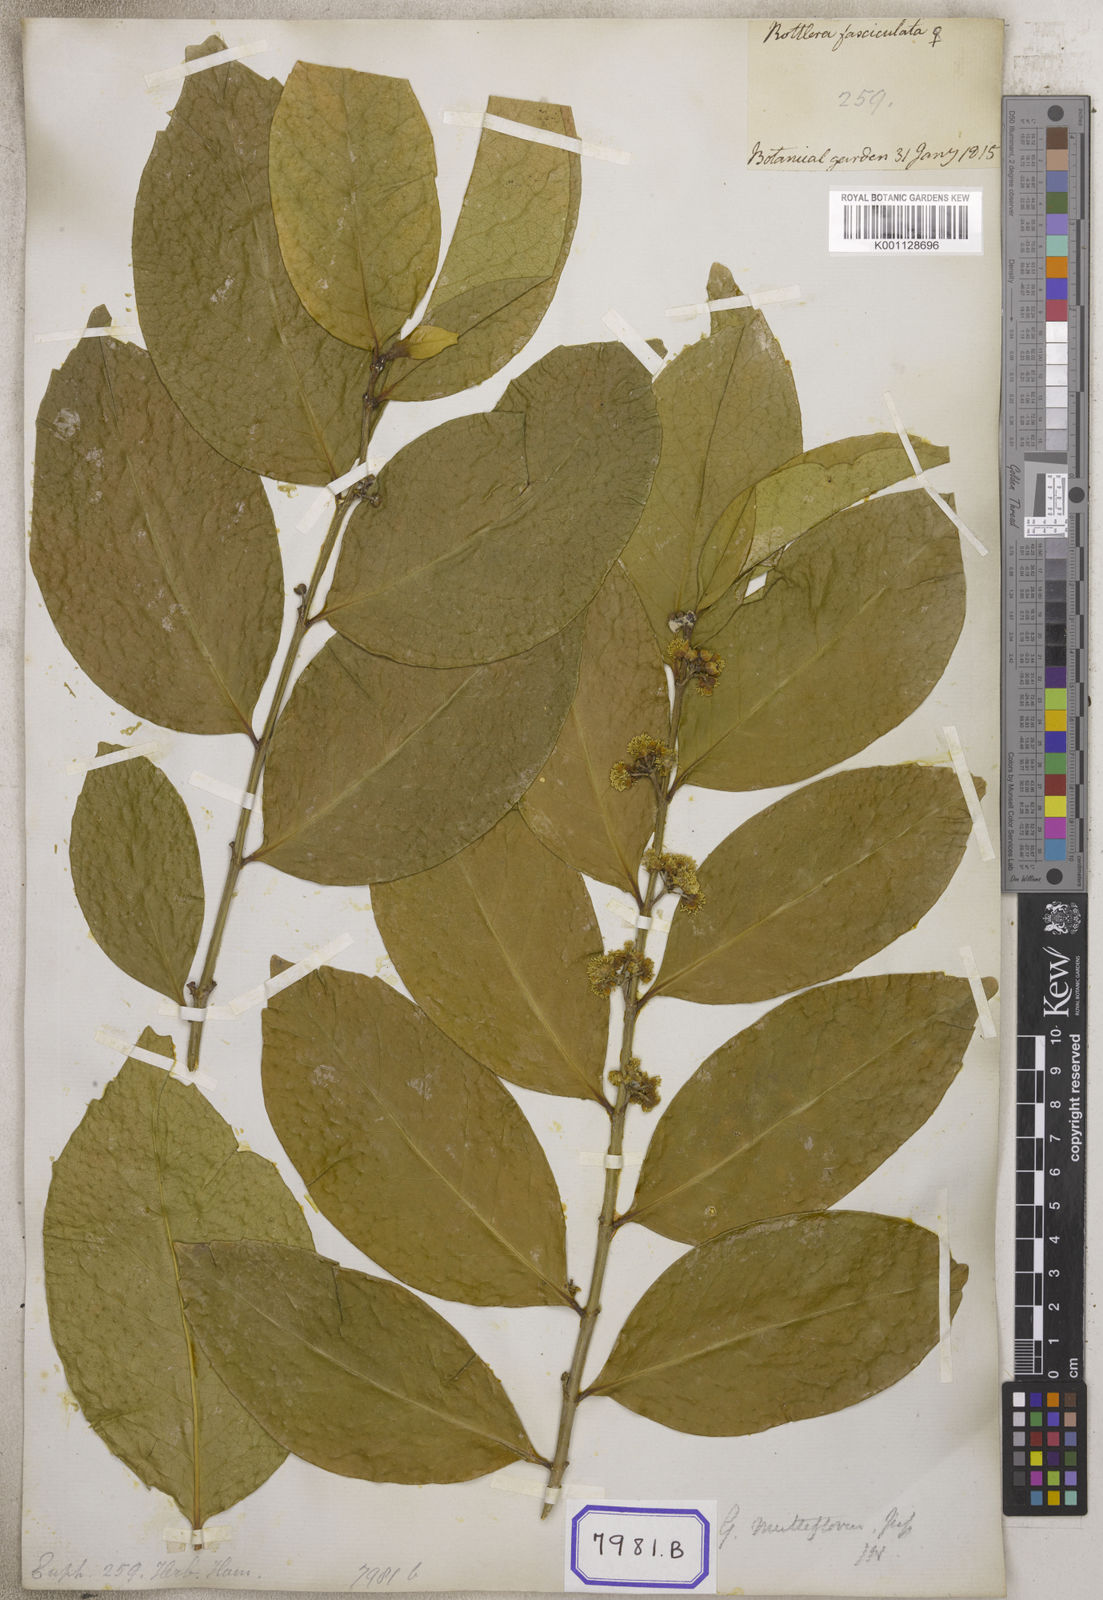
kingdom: Plantae
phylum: Tracheophyta
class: Magnoliopsida
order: Malpighiales
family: Euphorbiaceae
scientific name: Euphorbiaceae
